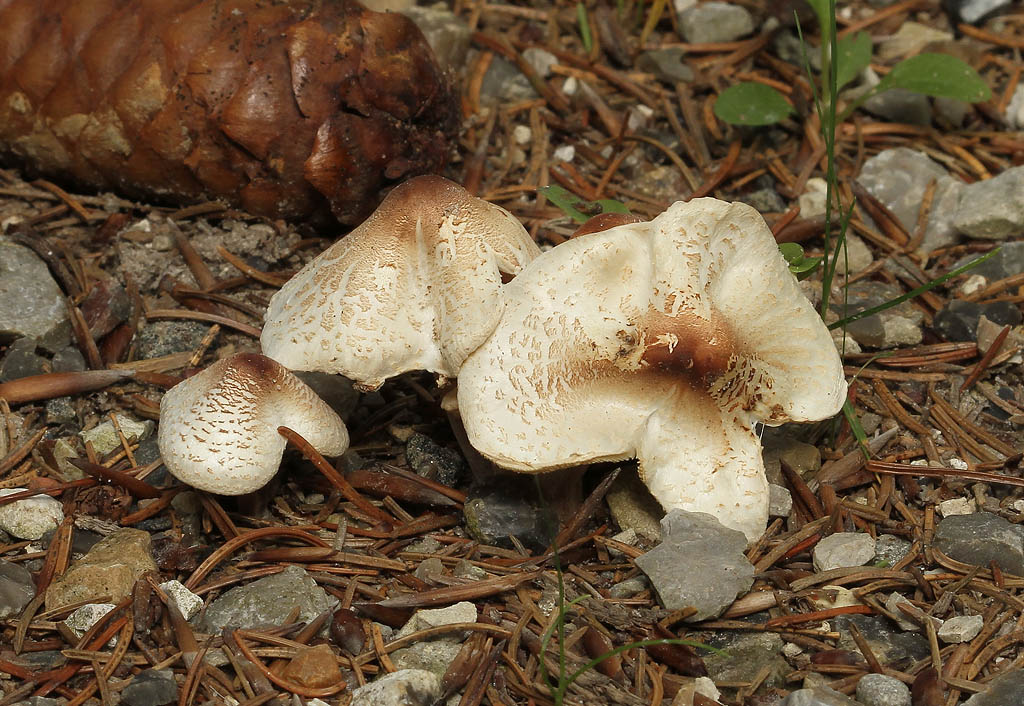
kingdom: Fungi
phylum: Basidiomycota
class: Agaricomycetes
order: Agaricales
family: Agaricaceae
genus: Lepiota
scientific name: Lepiota cristata
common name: stinkende parasolhat
